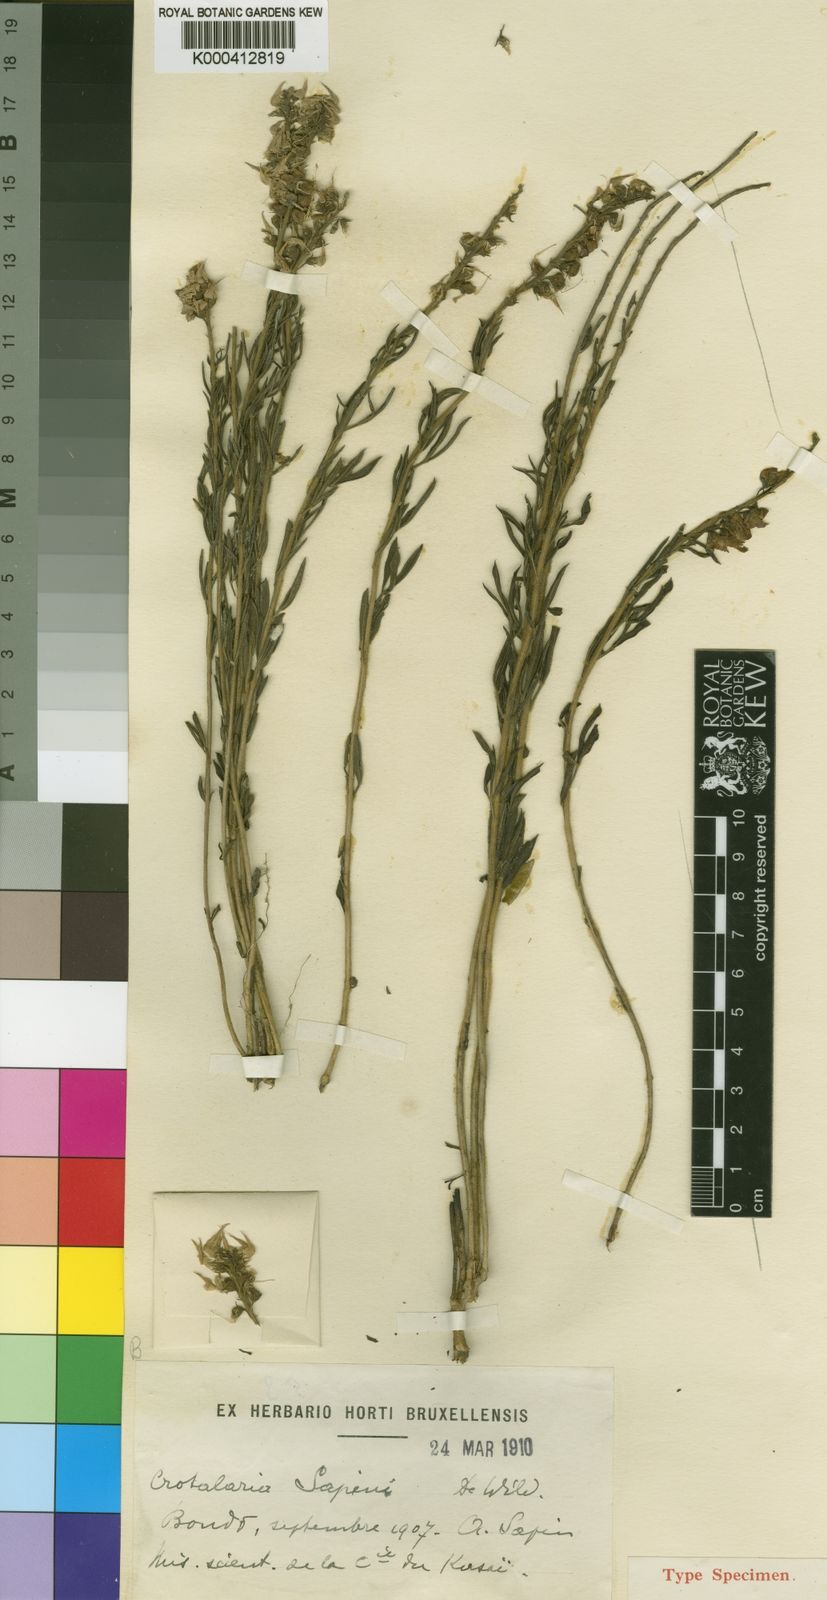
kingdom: Plantae
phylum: Tracheophyta
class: Magnoliopsida
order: Fabales
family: Fabaceae
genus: Crotalaria
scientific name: Crotalaria sapinii
